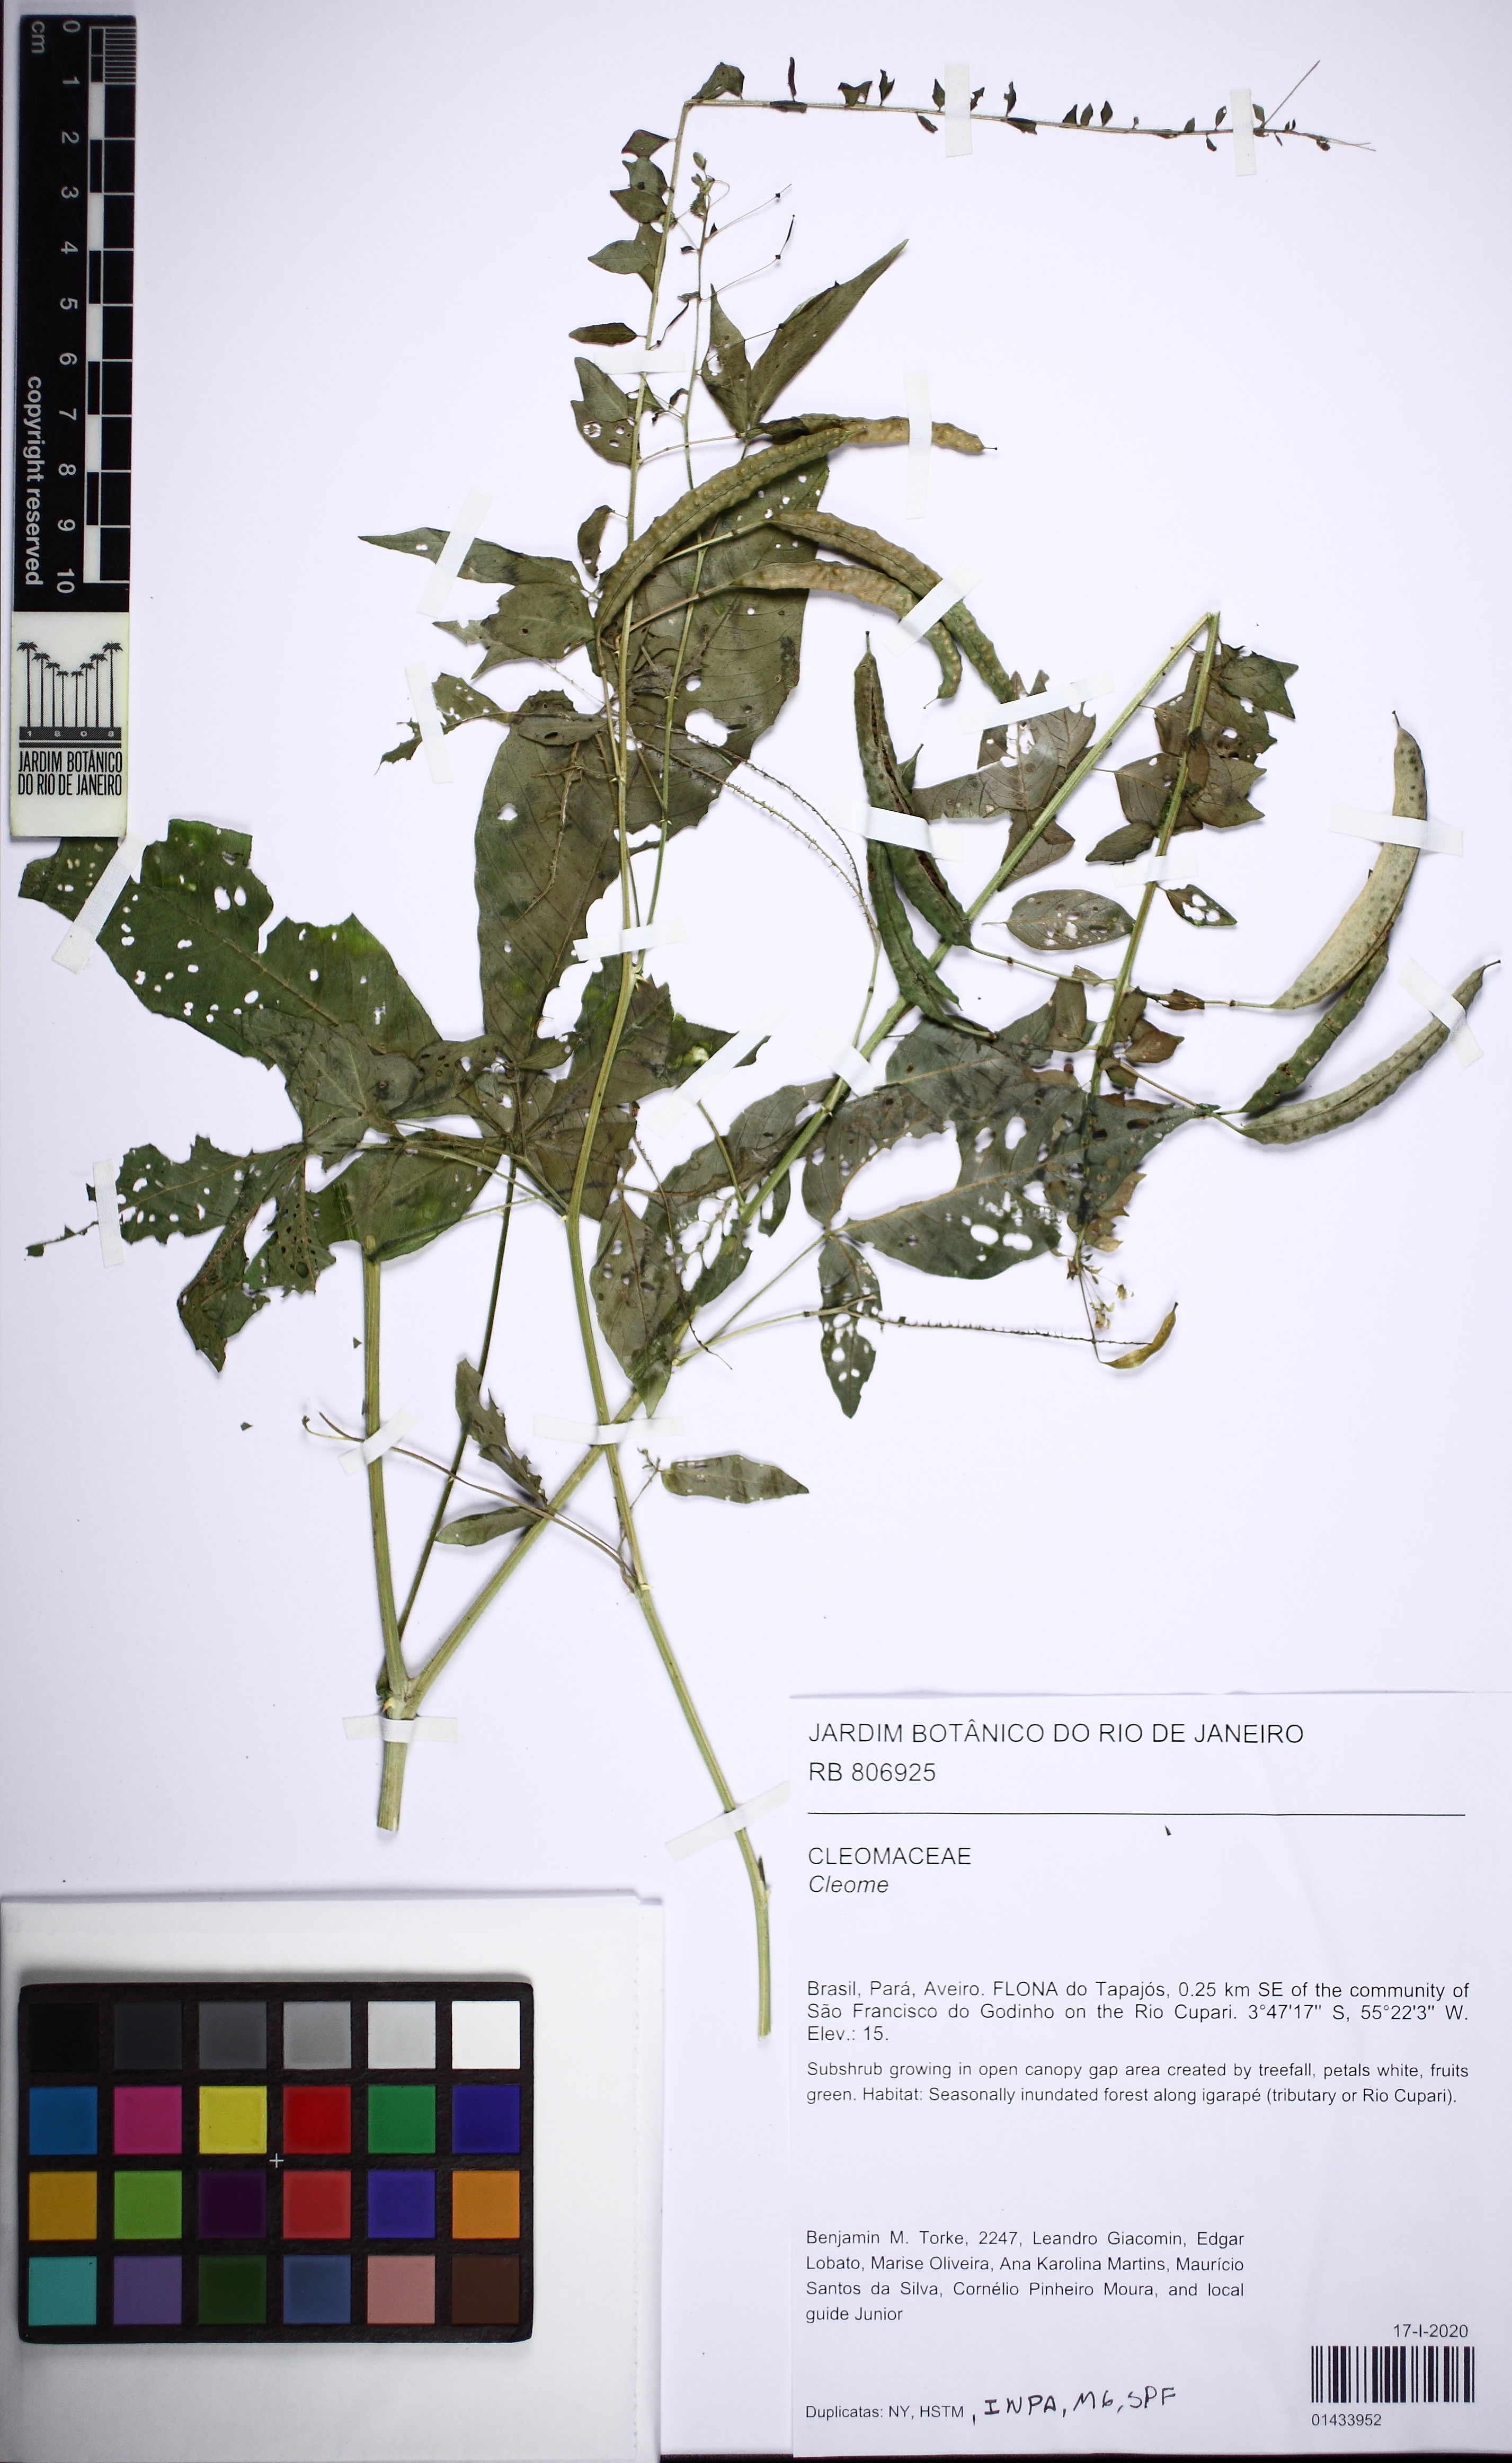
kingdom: Plantae
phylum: Tracheophyta
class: Magnoliopsida
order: Brassicales
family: Cleomaceae
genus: Cleome
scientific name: Cleome
